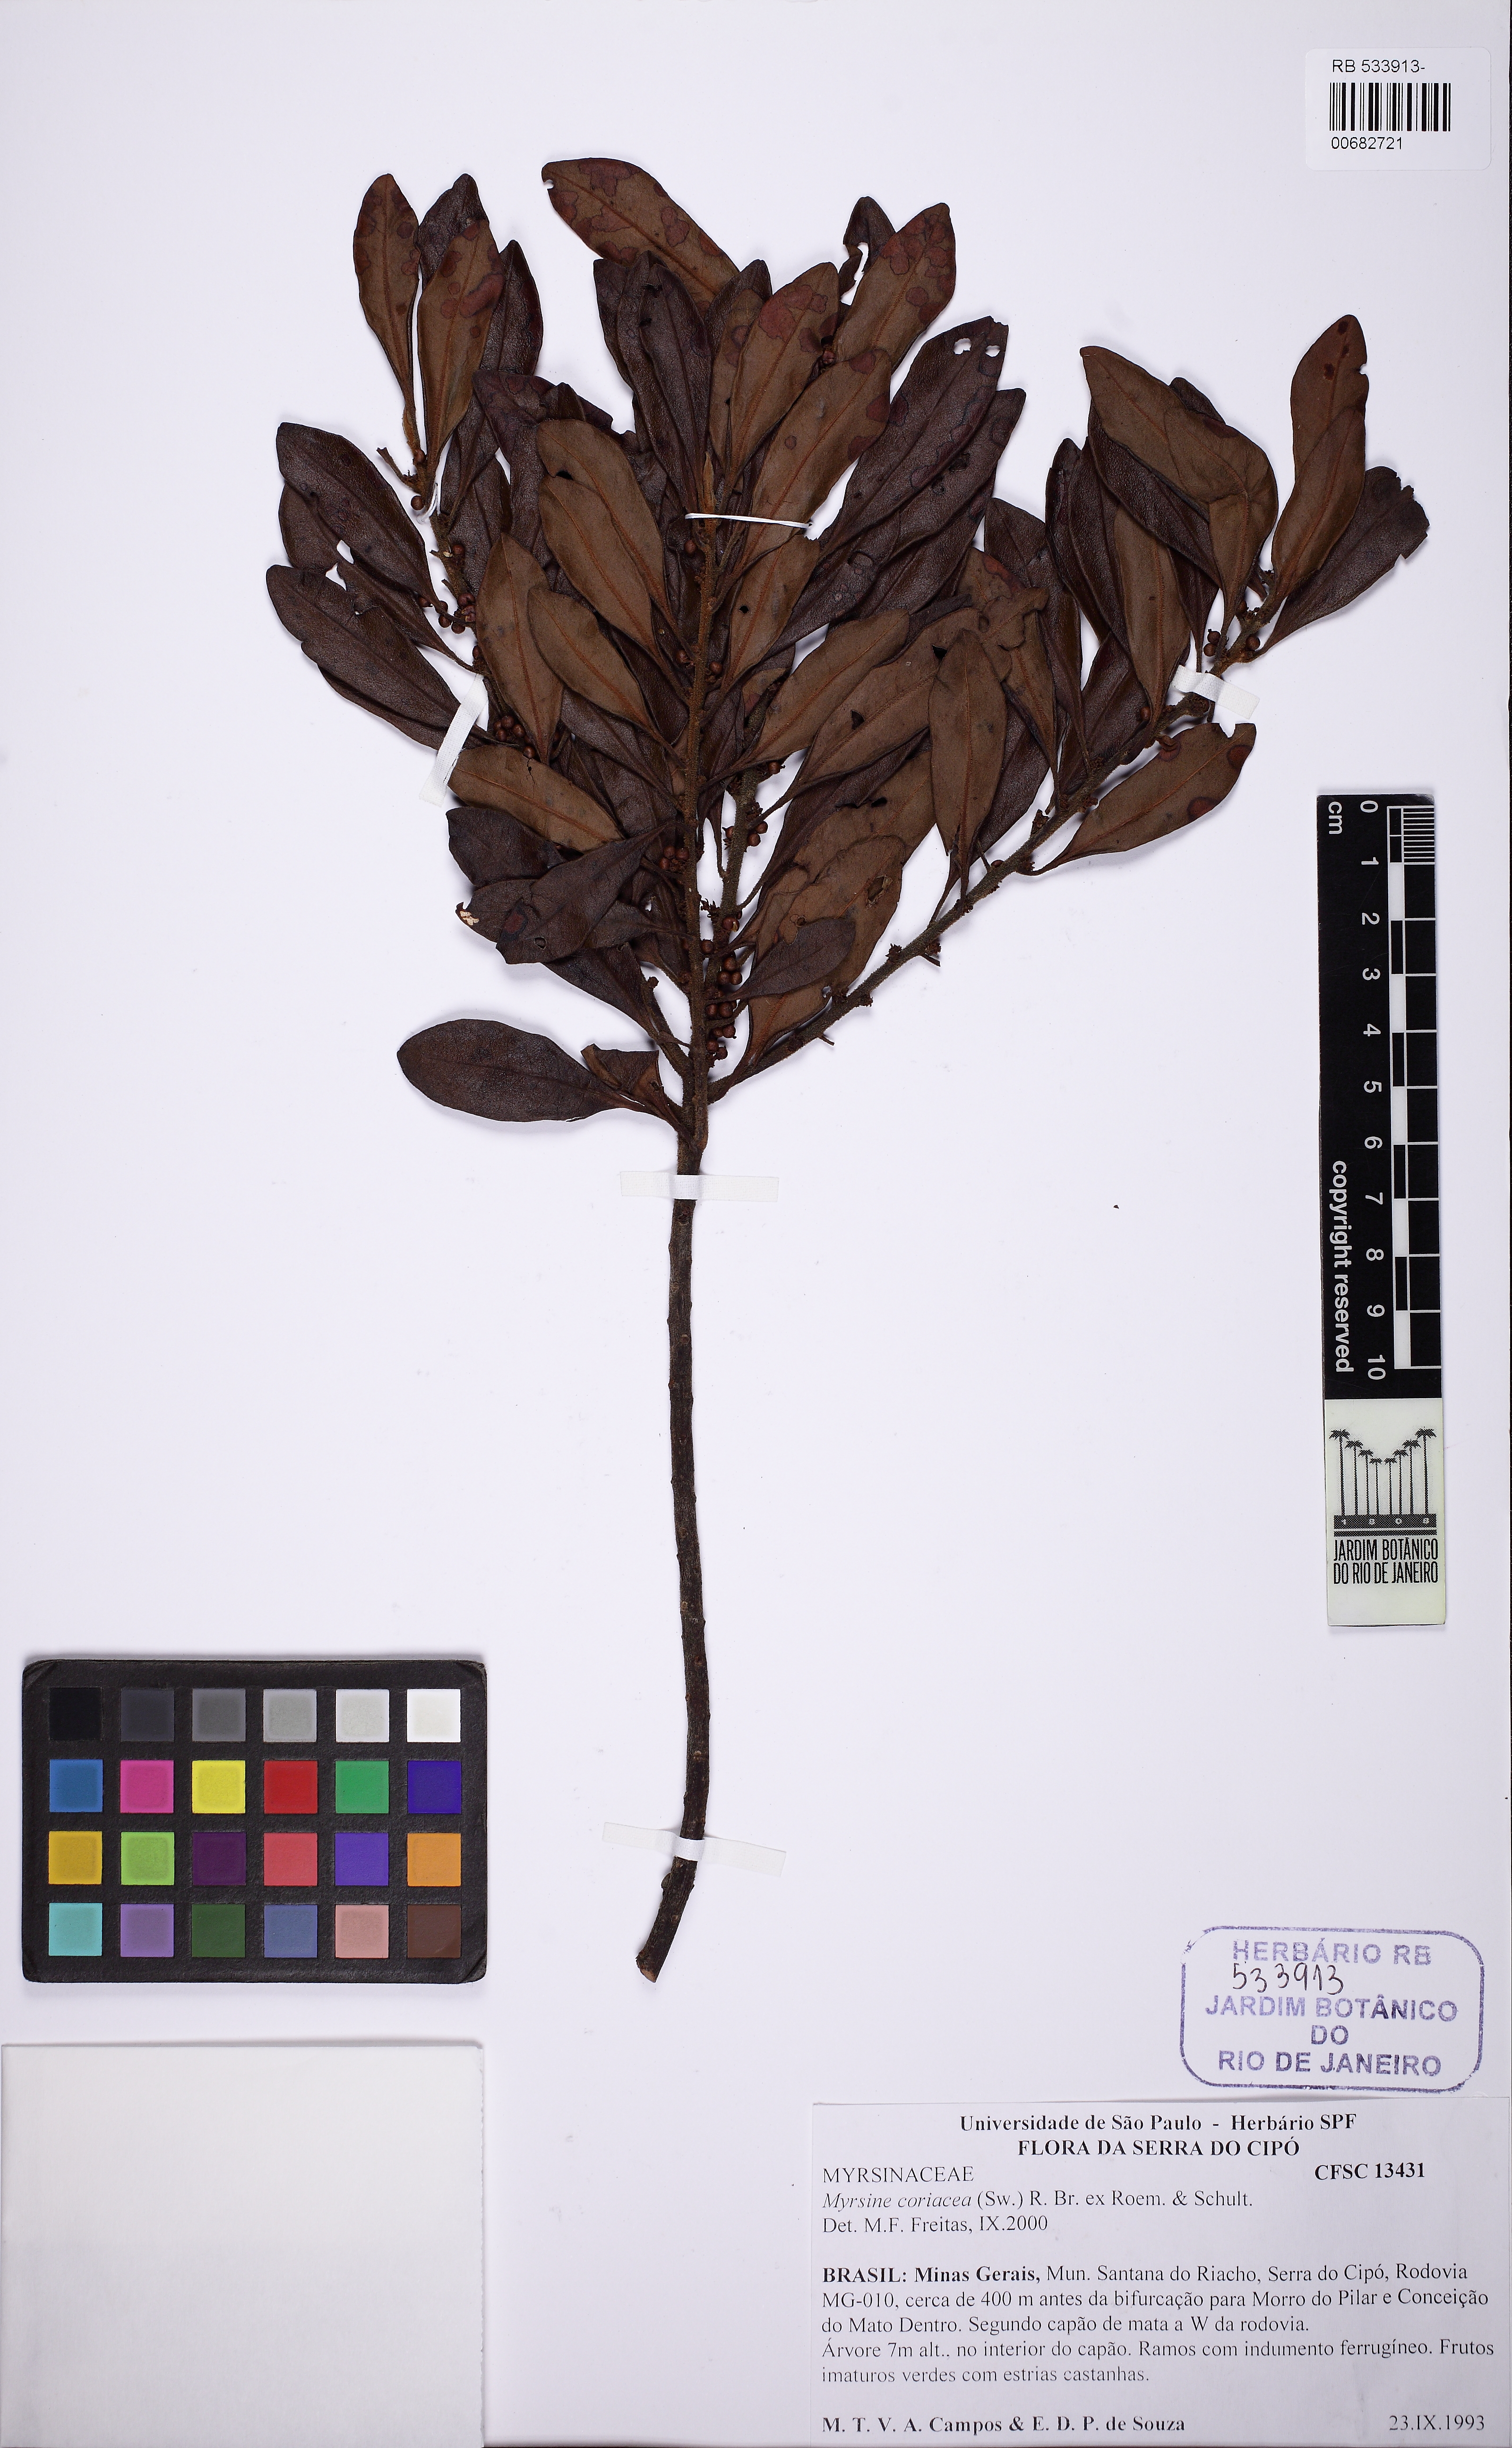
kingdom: Plantae
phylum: Tracheophyta
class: Magnoliopsida
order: Ericales
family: Primulaceae
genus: Myrsine
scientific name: Myrsine coriacea
